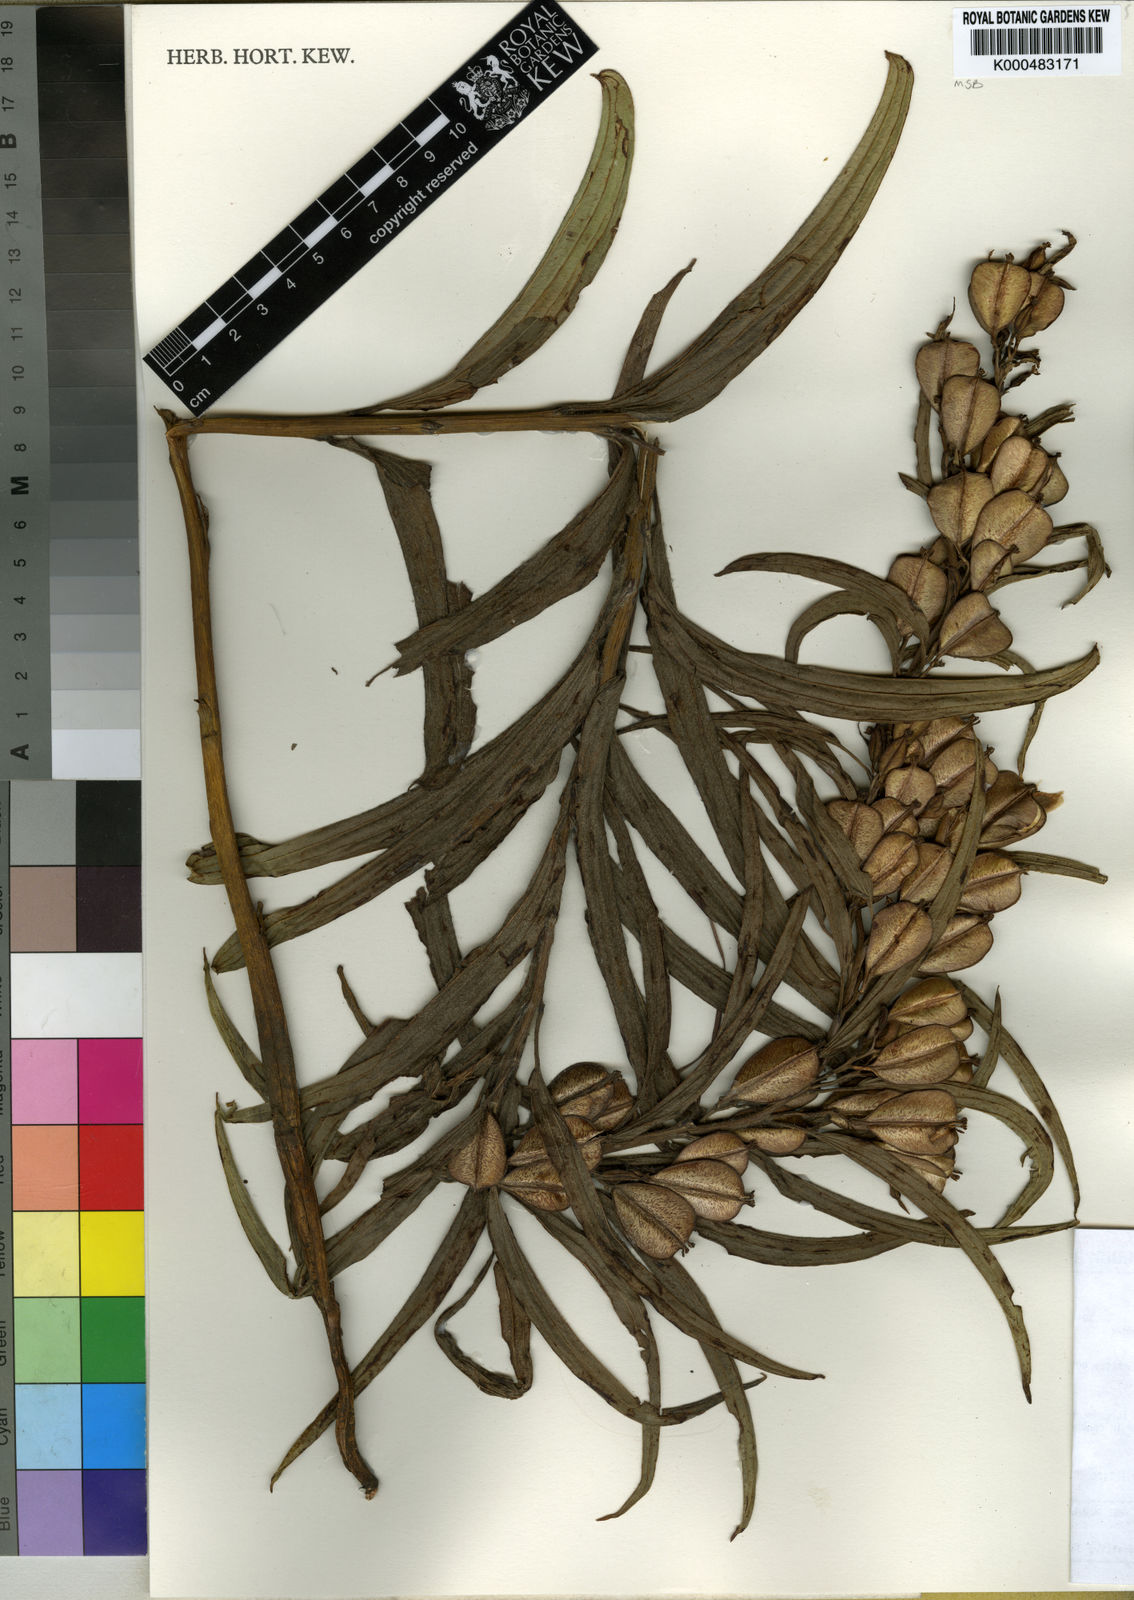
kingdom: Plantae
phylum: Tracheophyta
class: Liliopsida
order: Dioscoreales
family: Dioscoreaceae
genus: Dioscorea
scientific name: Dioscorea brownii
